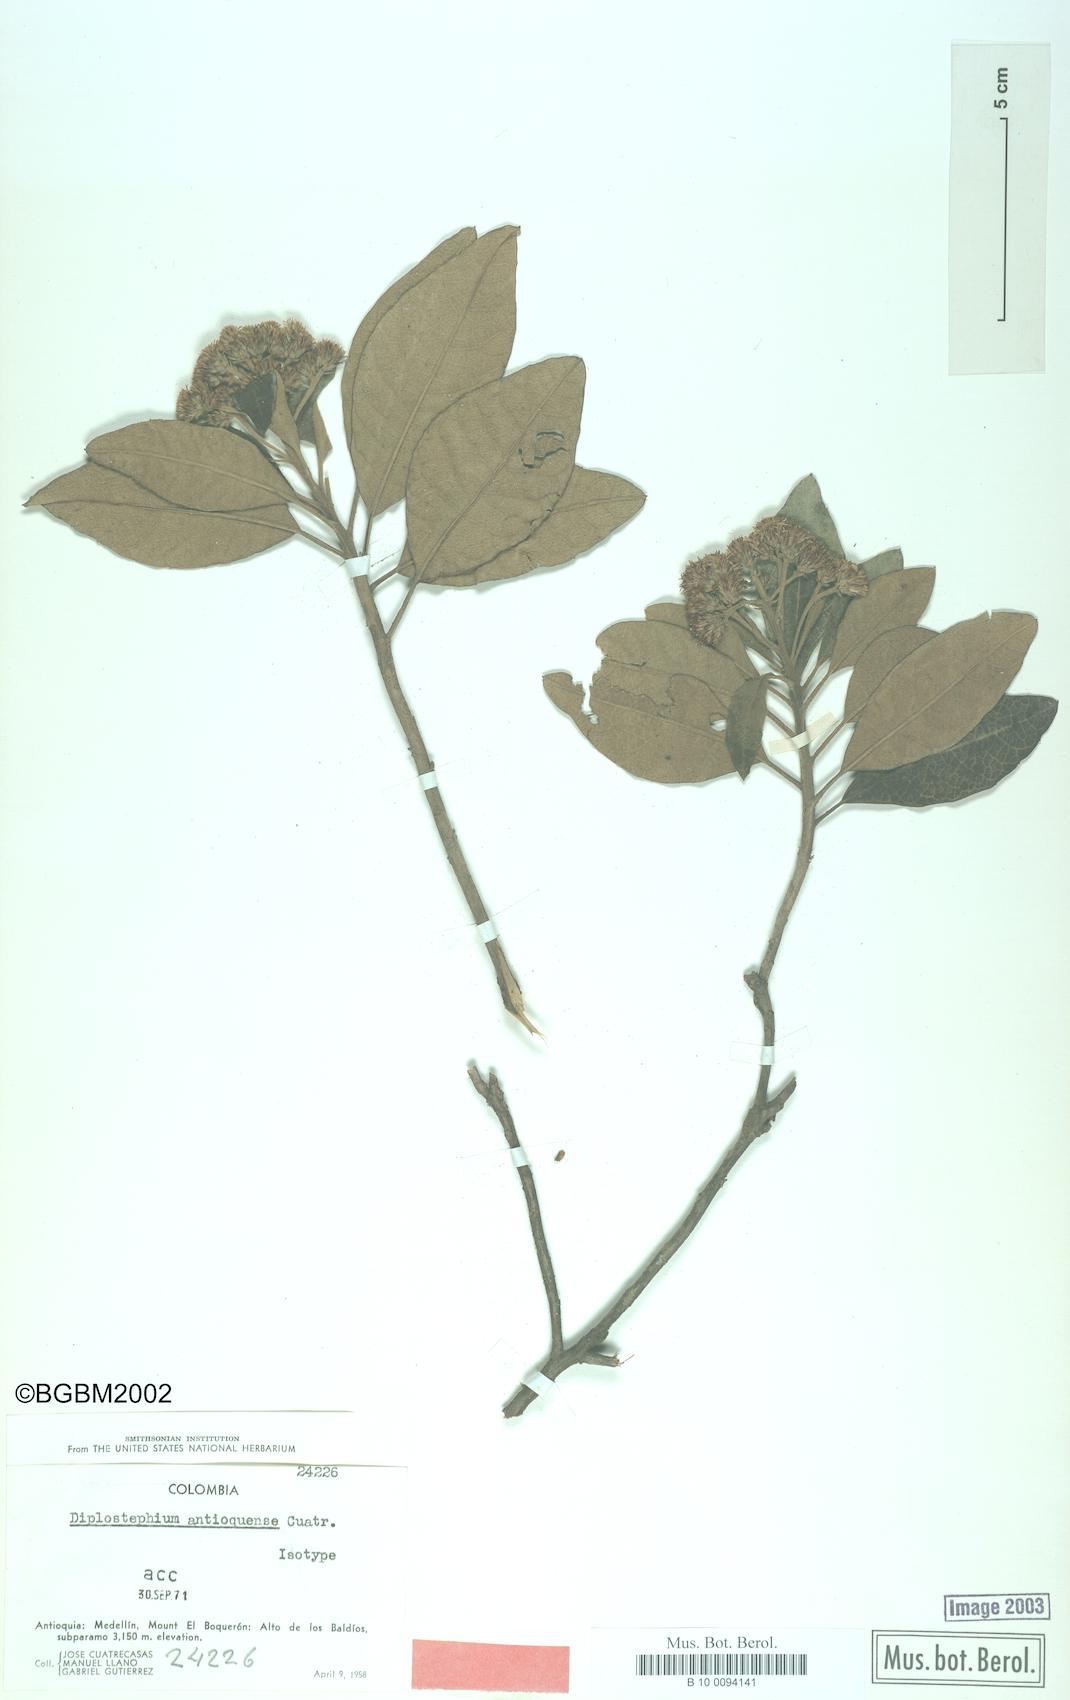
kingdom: Plantae
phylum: Tracheophyta
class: Magnoliopsida
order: Asterales
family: Asteraceae
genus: Linochilus
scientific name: Linochilus antioquensis
